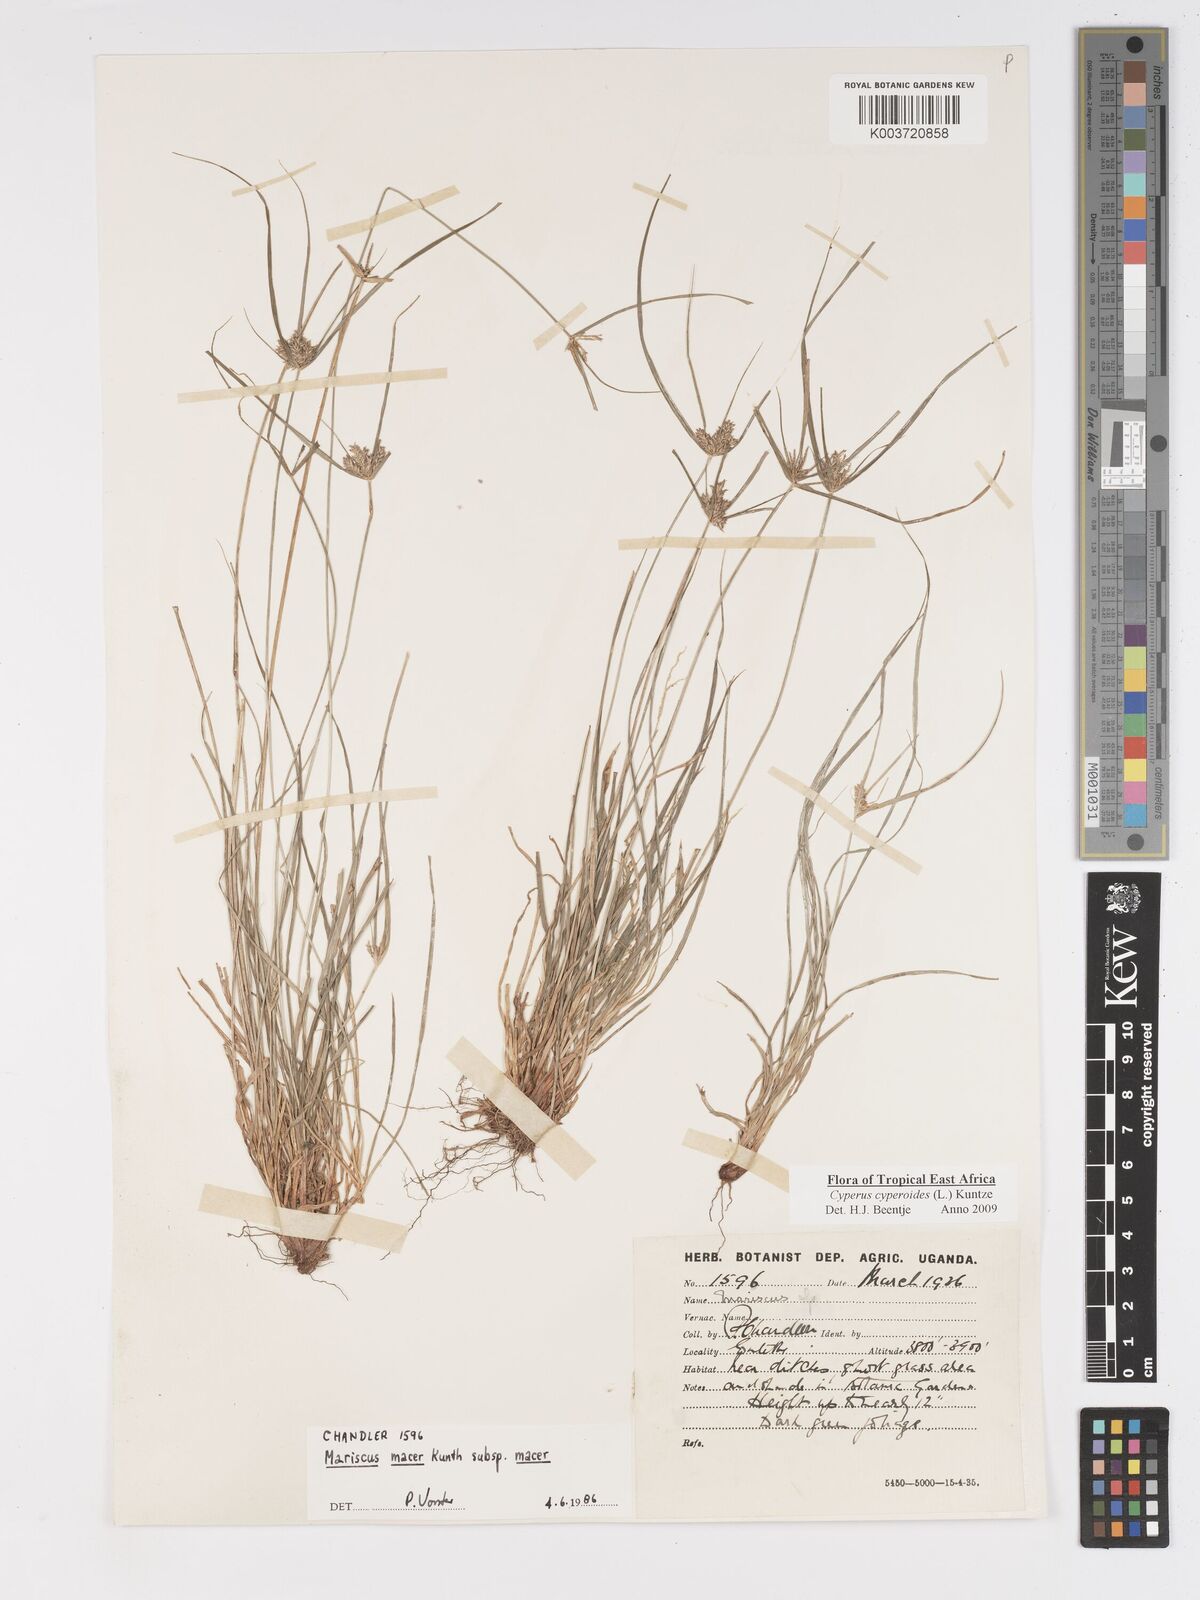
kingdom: Plantae
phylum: Tracheophyta
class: Liliopsida
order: Poales
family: Cyperaceae
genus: Cyperus
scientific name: Cyperus pseudoflavus
